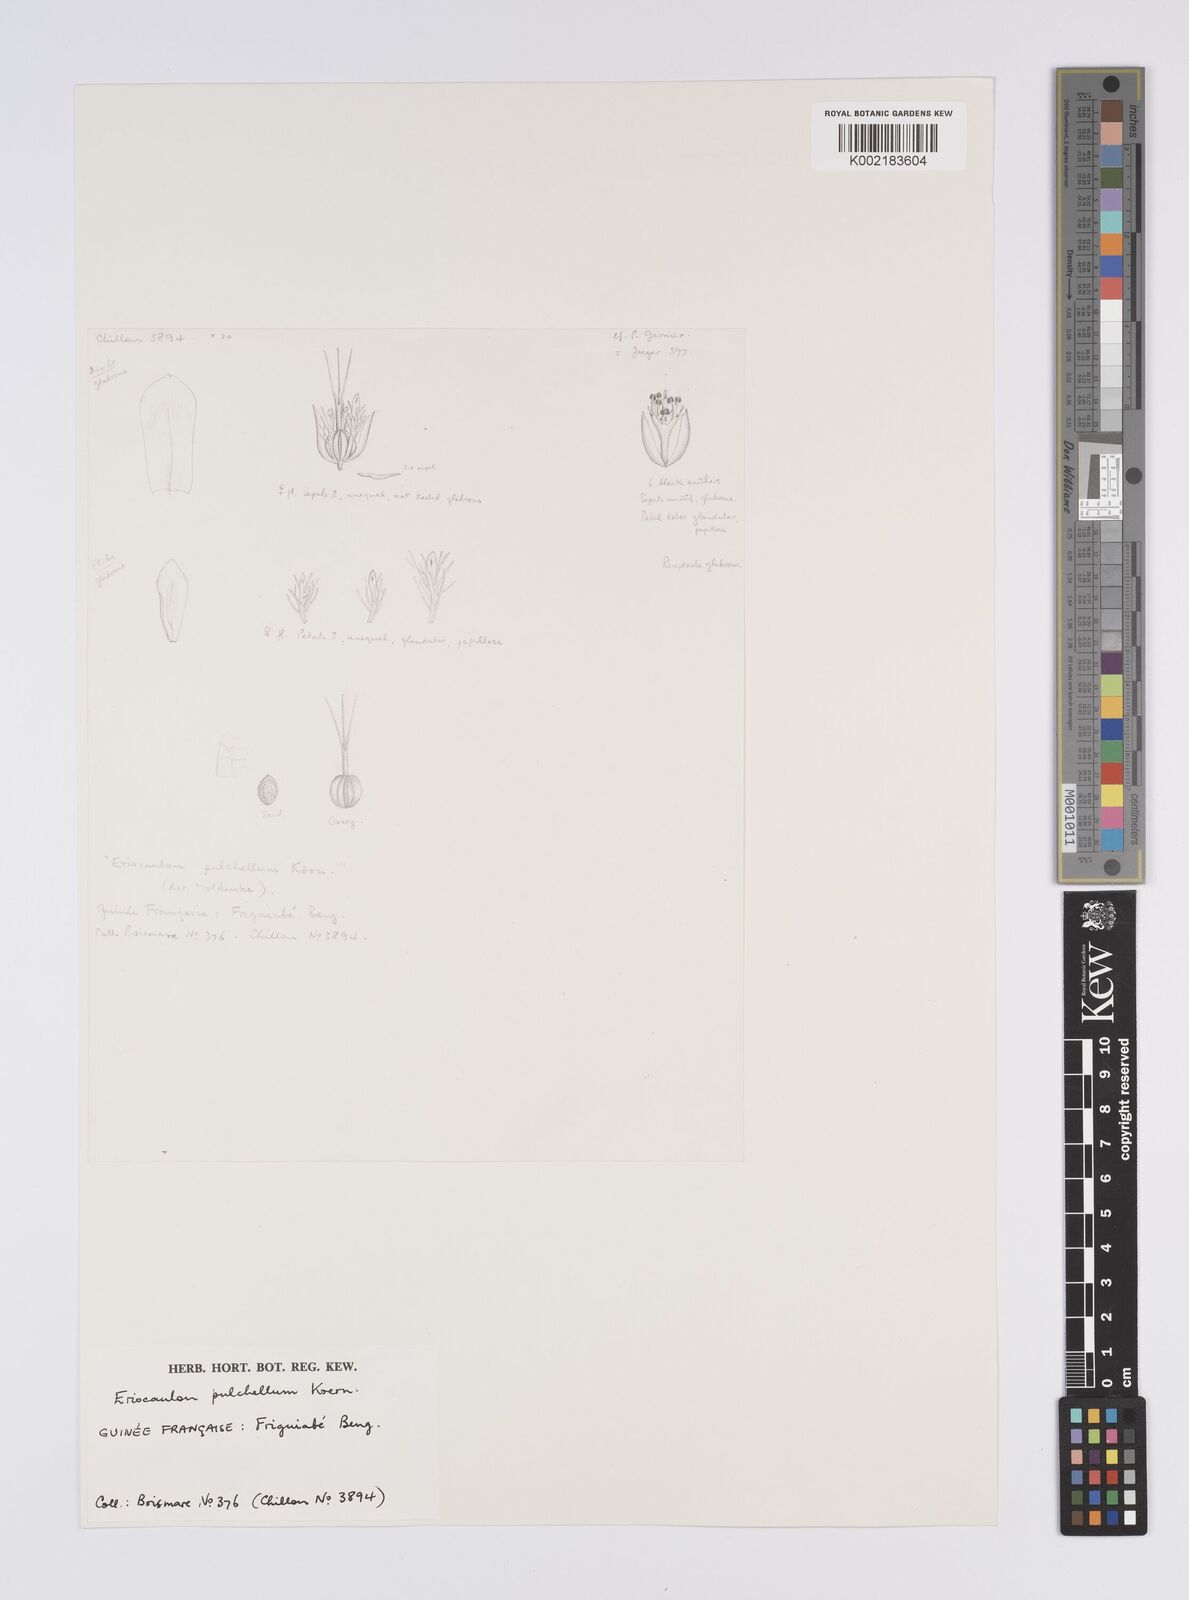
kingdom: Plantae
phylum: Tracheophyta
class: Liliopsida
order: Poales
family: Eriocaulaceae
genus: Eriocaulon
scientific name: Eriocaulon pulchellum
